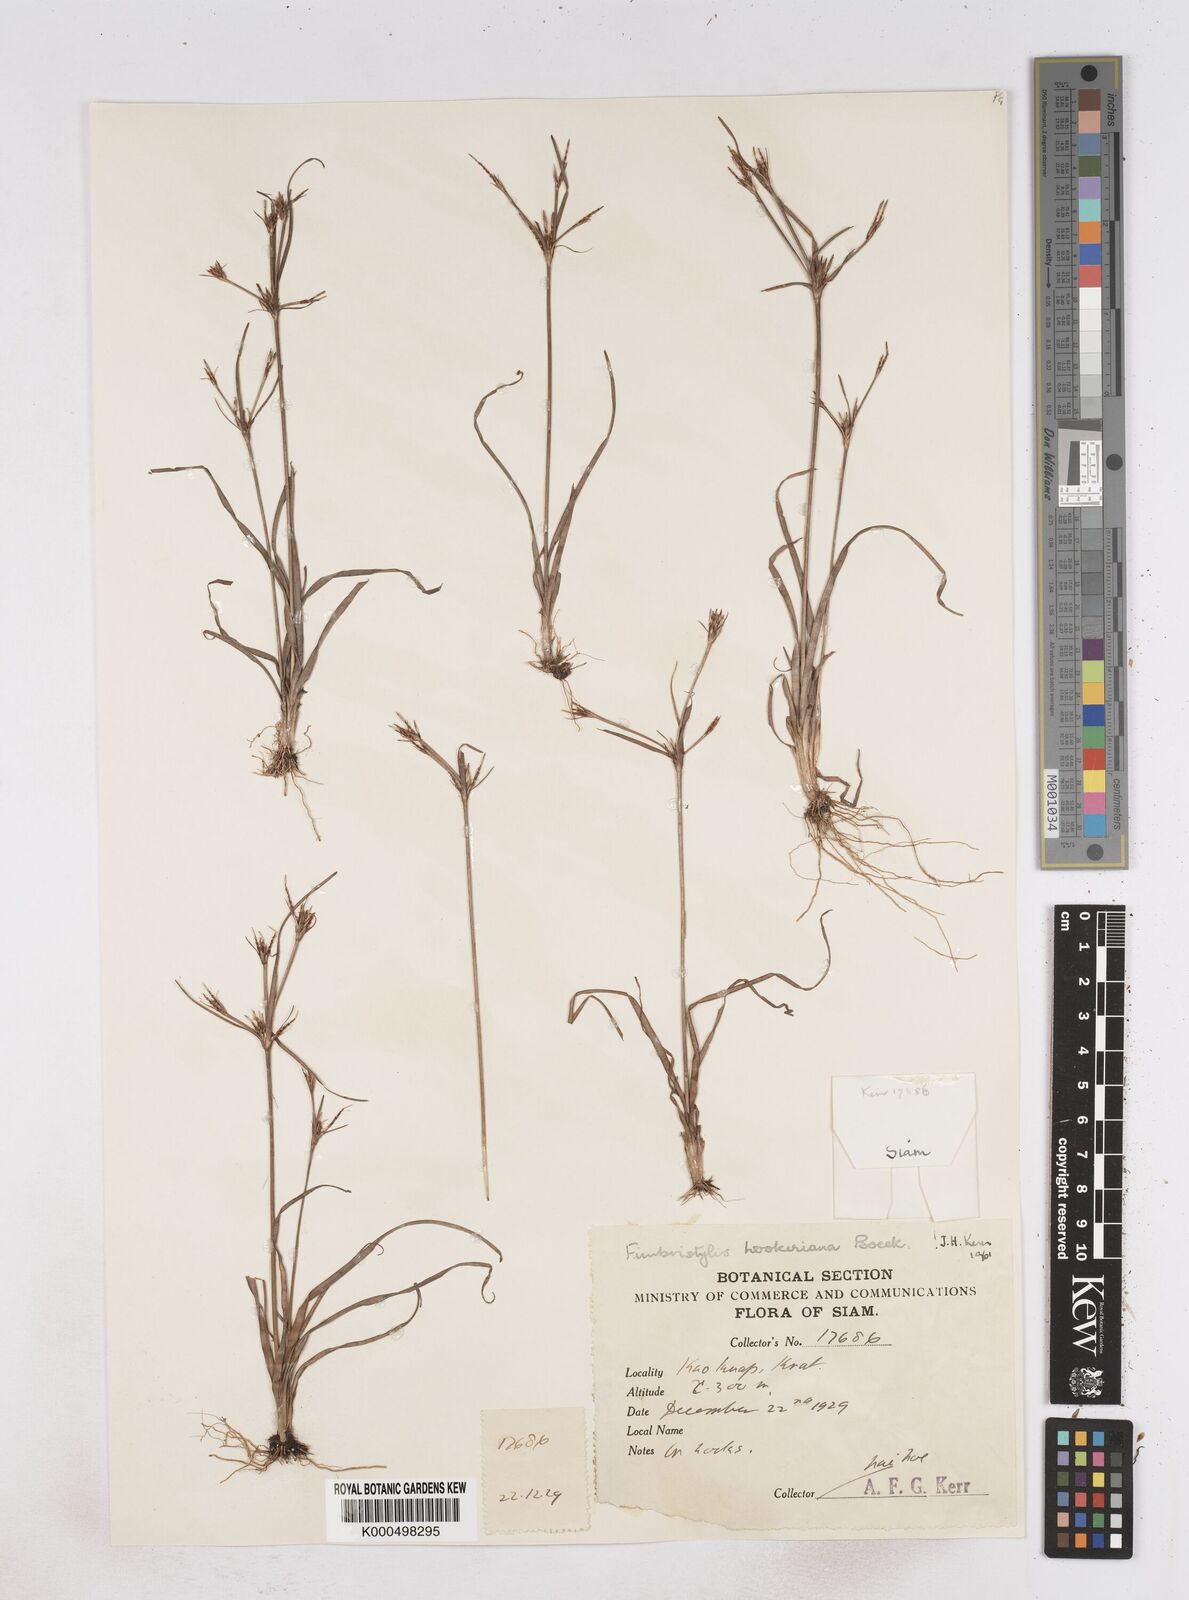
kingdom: Plantae
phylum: Tracheophyta
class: Liliopsida
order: Poales
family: Cyperaceae
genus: Fimbristylis
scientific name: Fimbristylis hookeriana
